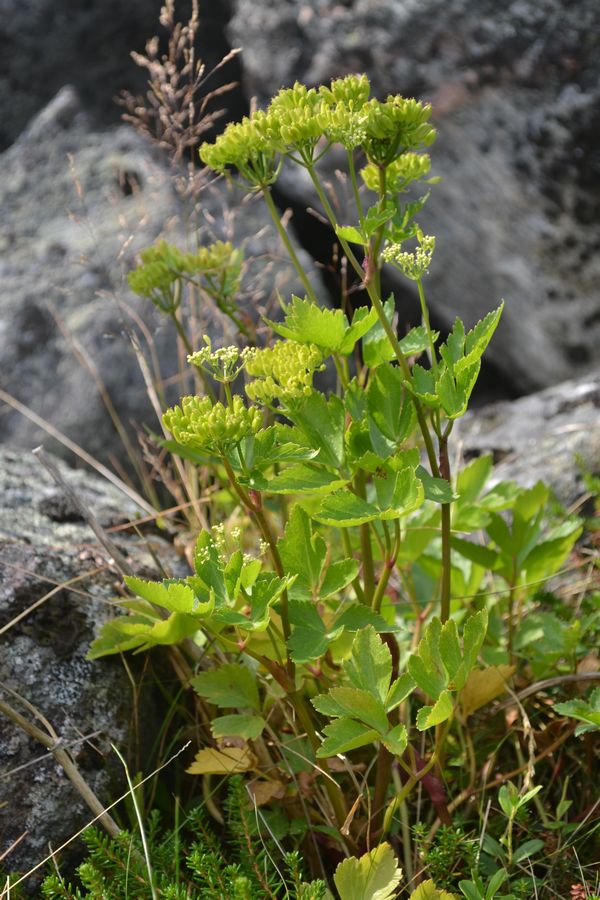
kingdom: Plantae
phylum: Tracheophyta
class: Magnoliopsida
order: Apiales
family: Apiaceae
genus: Ligusticum
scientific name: Ligusticum scothicum
